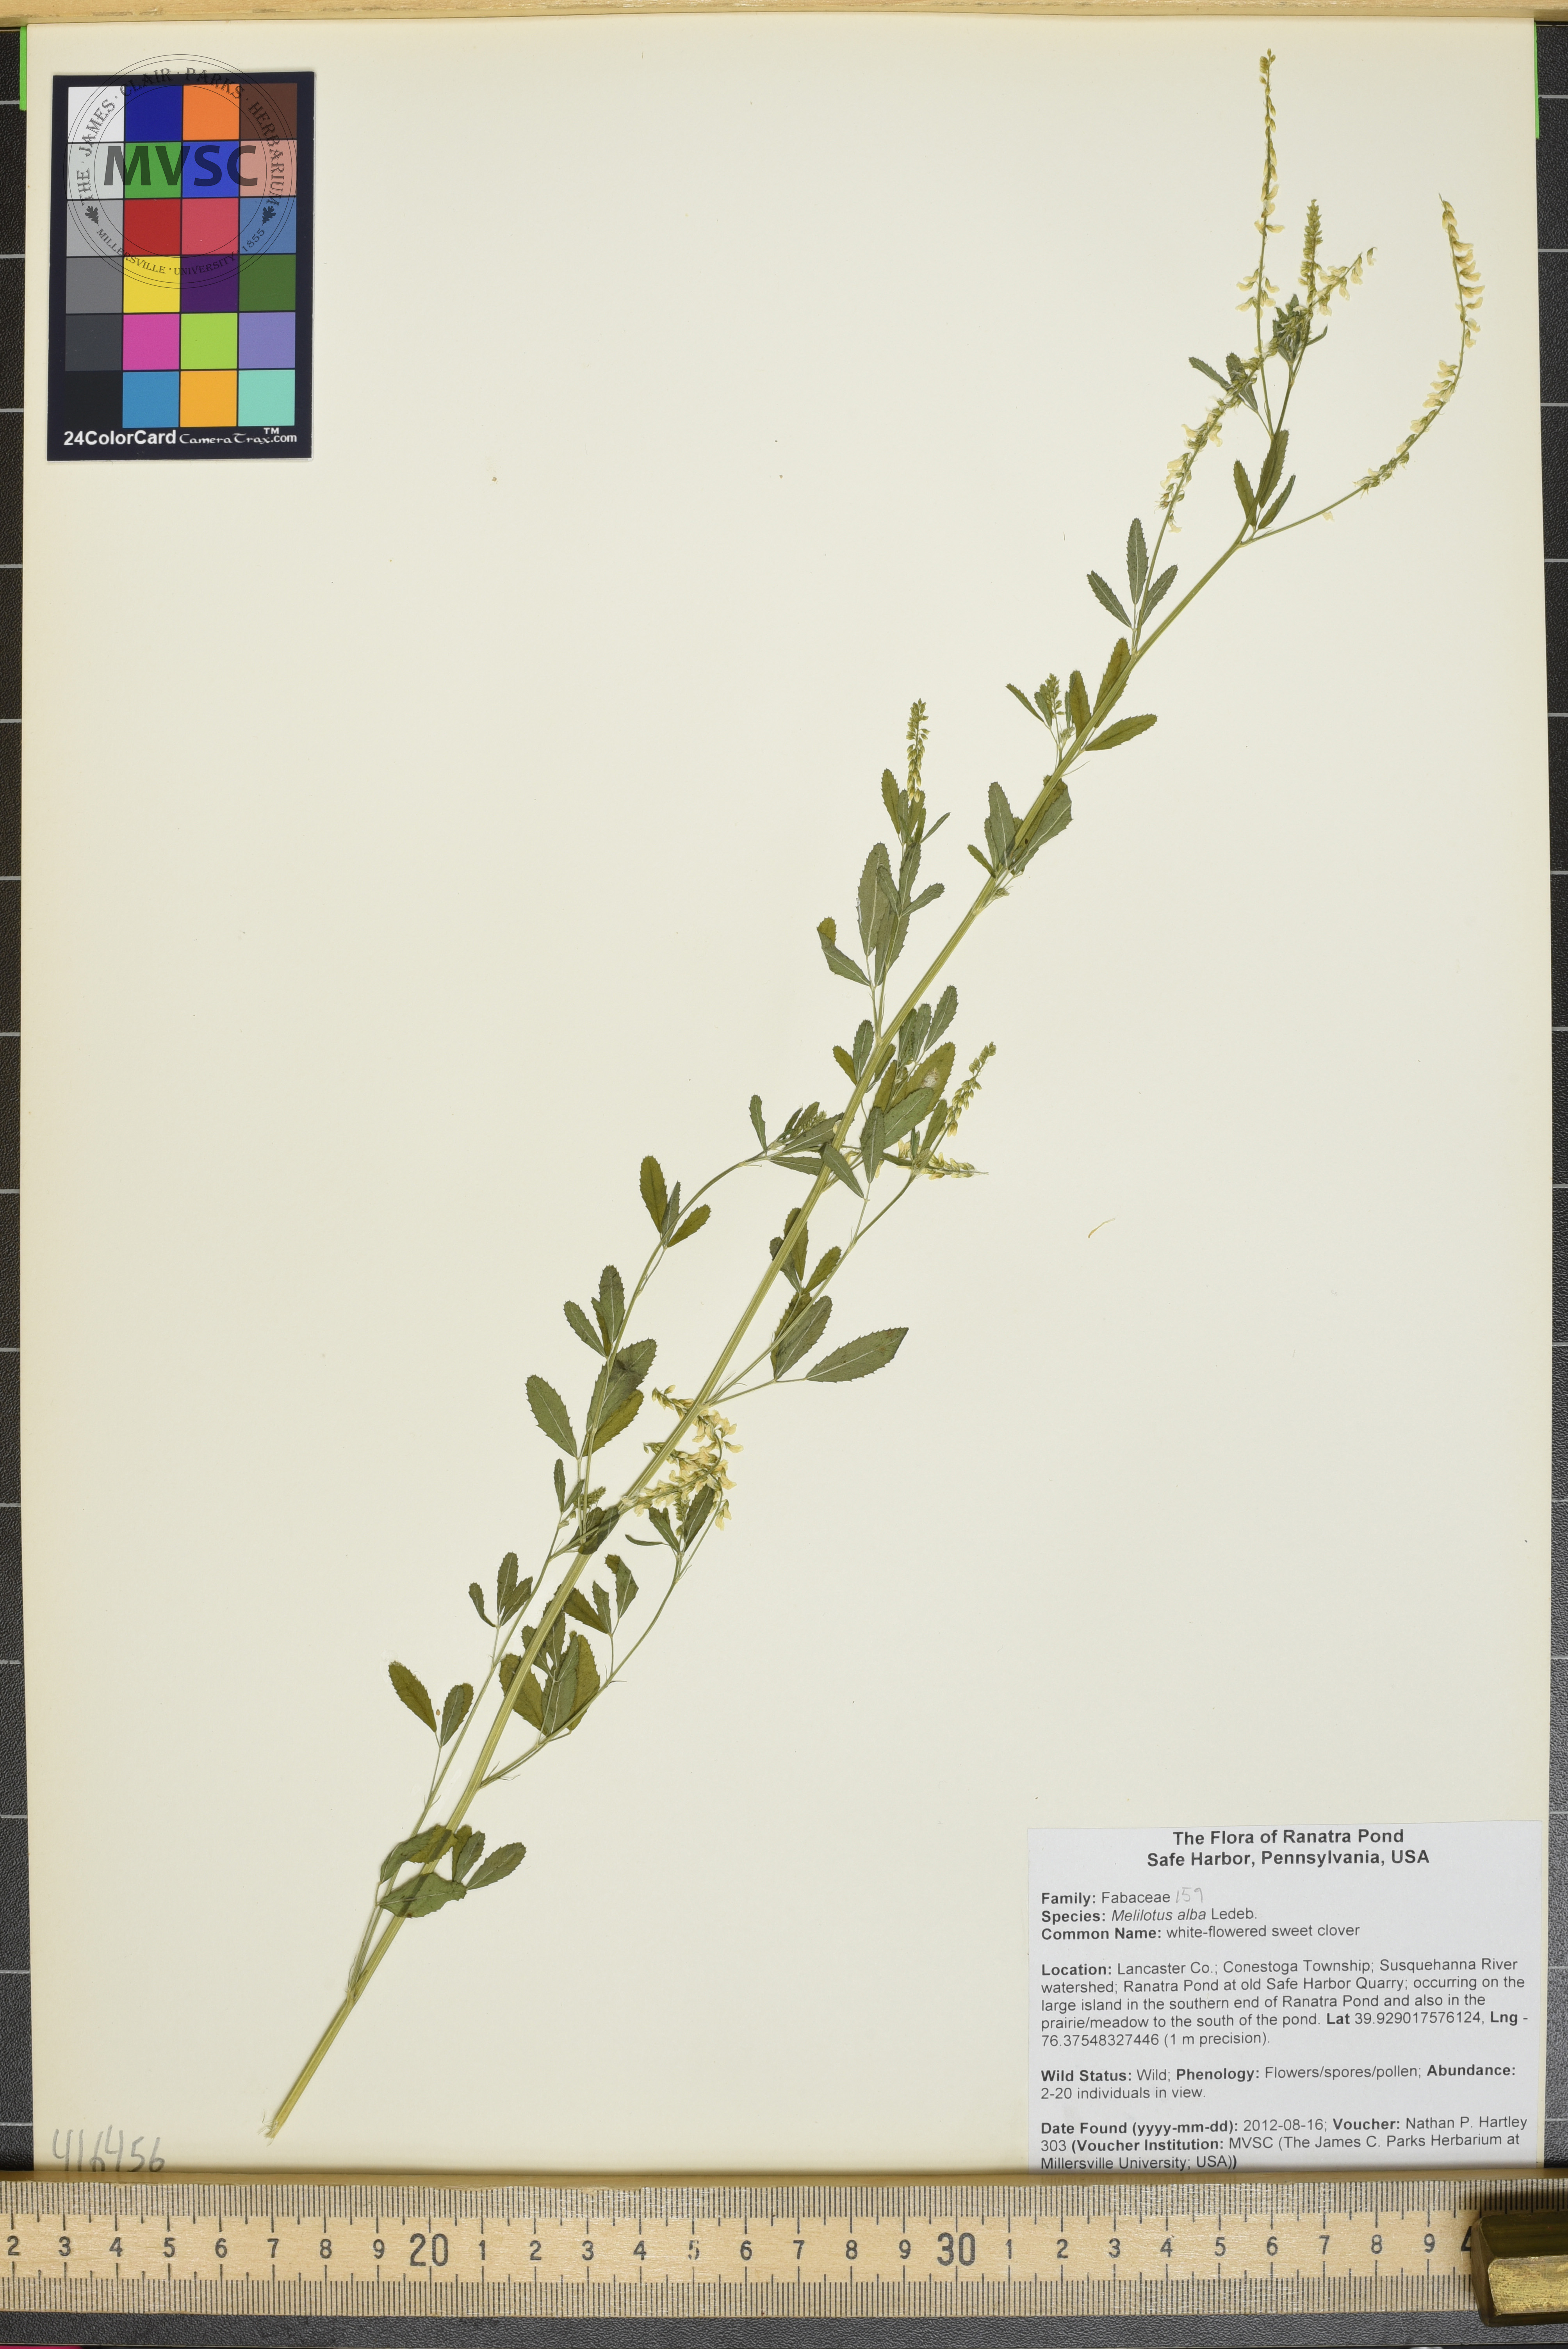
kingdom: Plantae
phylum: Tracheophyta
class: Magnoliopsida
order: Fabales
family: Fabaceae
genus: Melilotus
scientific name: Melilotus officinalis
